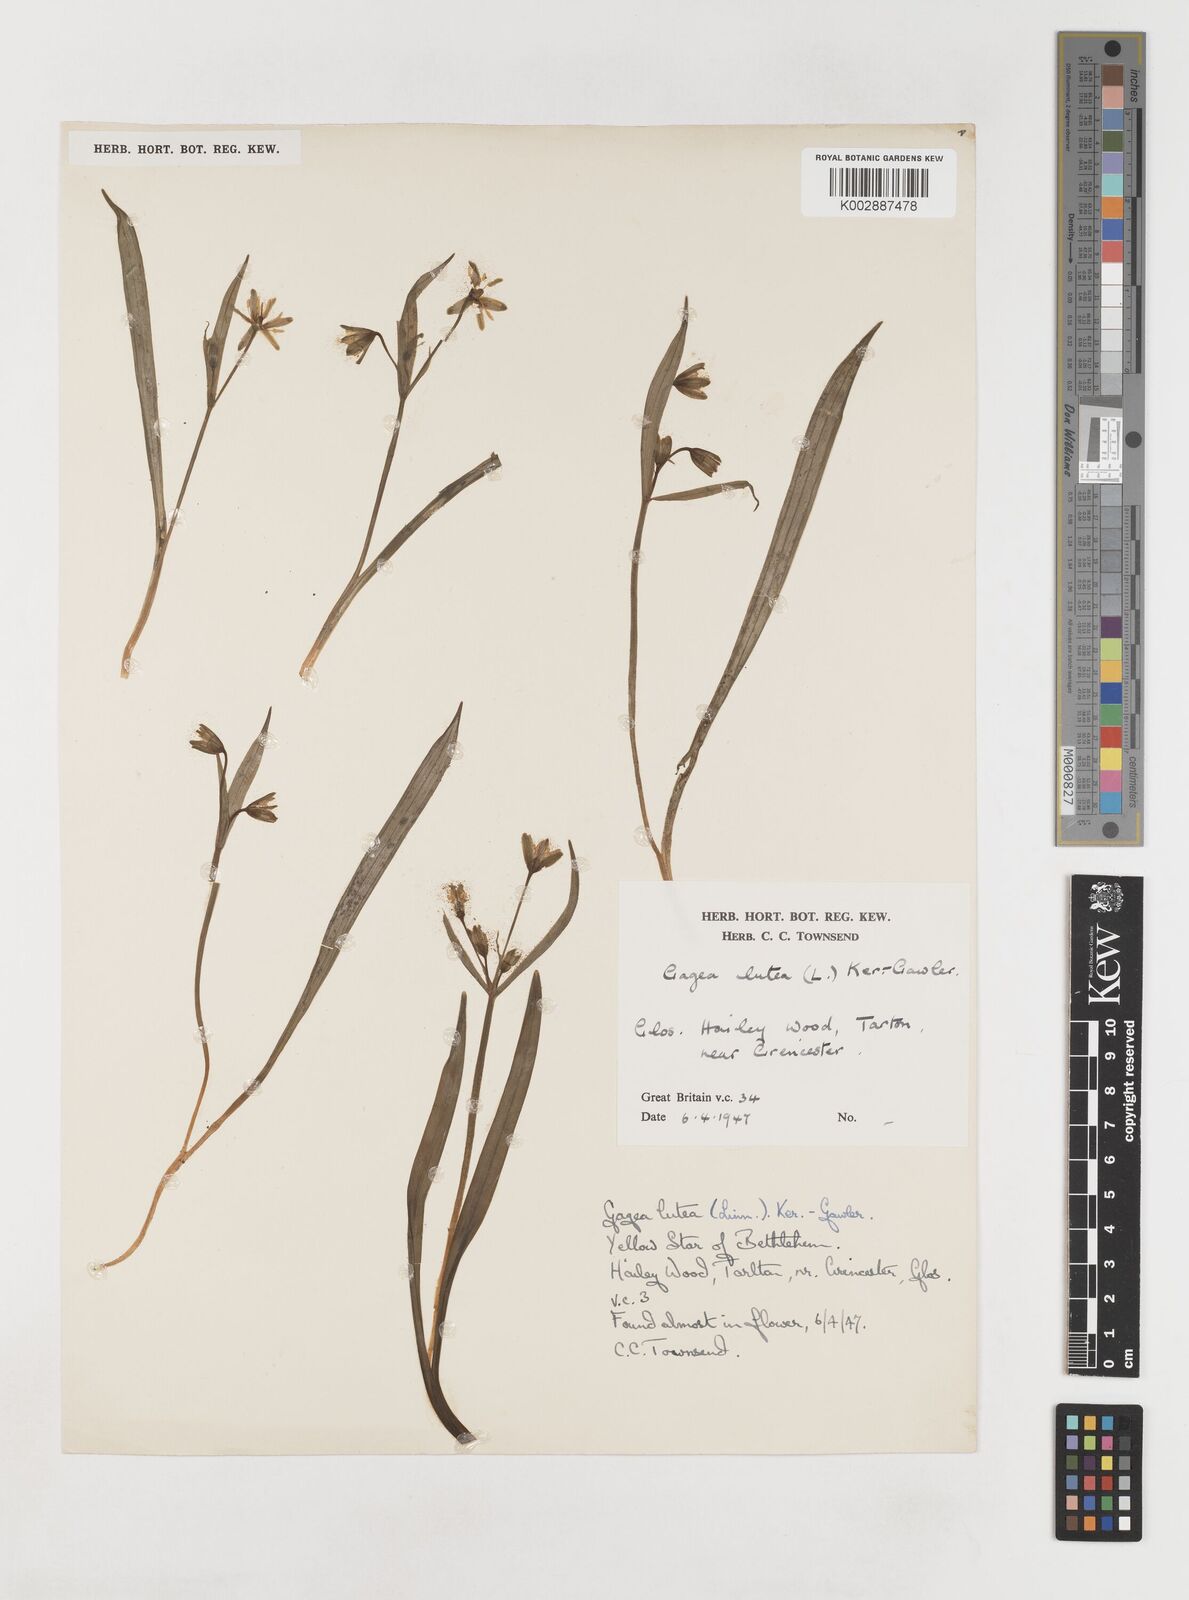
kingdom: Plantae
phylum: Tracheophyta
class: Liliopsida
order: Liliales
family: Liliaceae
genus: Gagea
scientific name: Gagea lutea
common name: Yellow star-of-bethlehem
